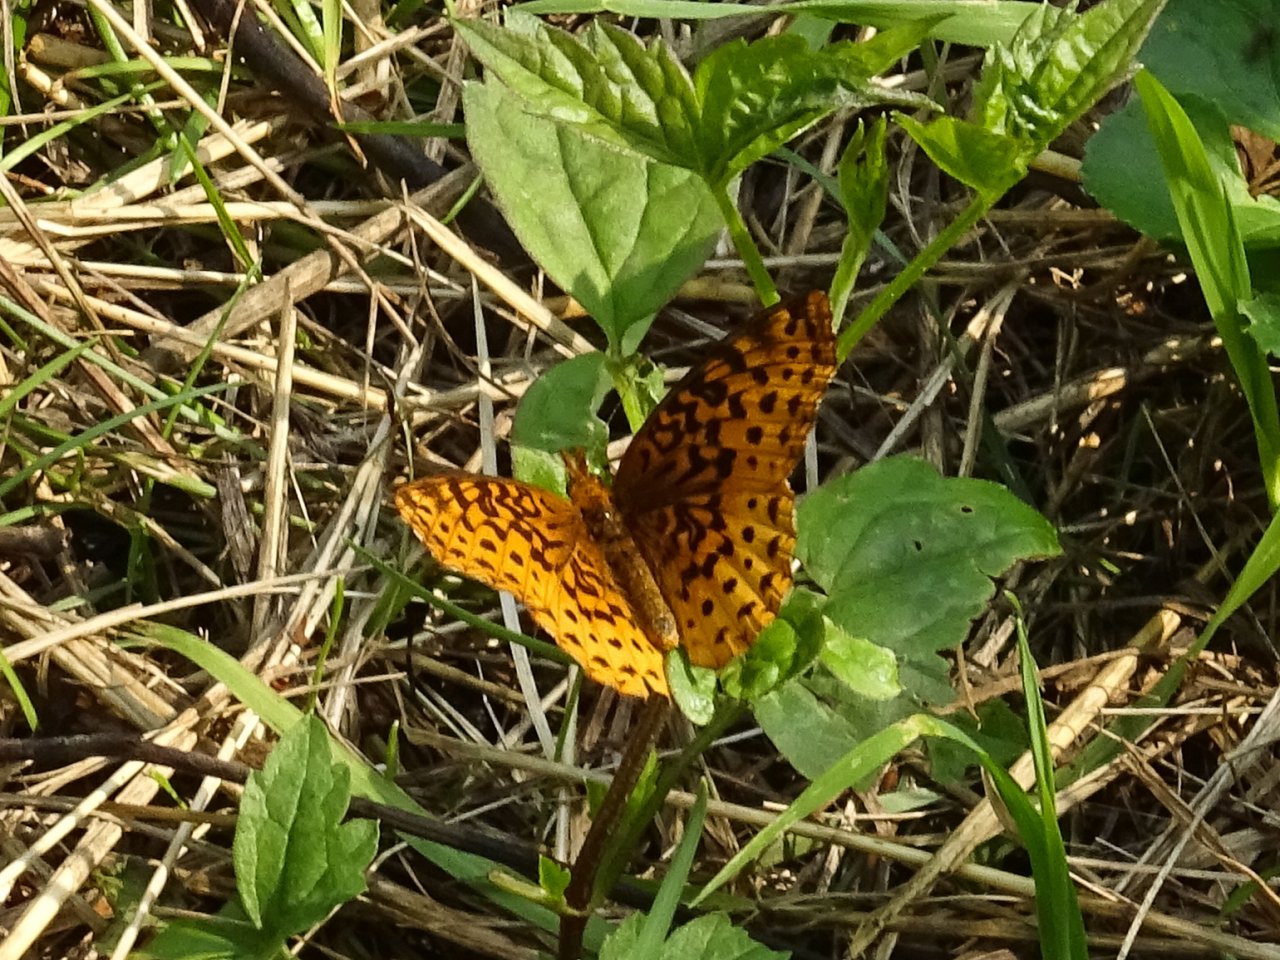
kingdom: Animalia
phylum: Arthropoda
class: Insecta
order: Lepidoptera
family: Nymphalidae
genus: Clossiana
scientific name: Clossiana toddi
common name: Meadow Fritillary
